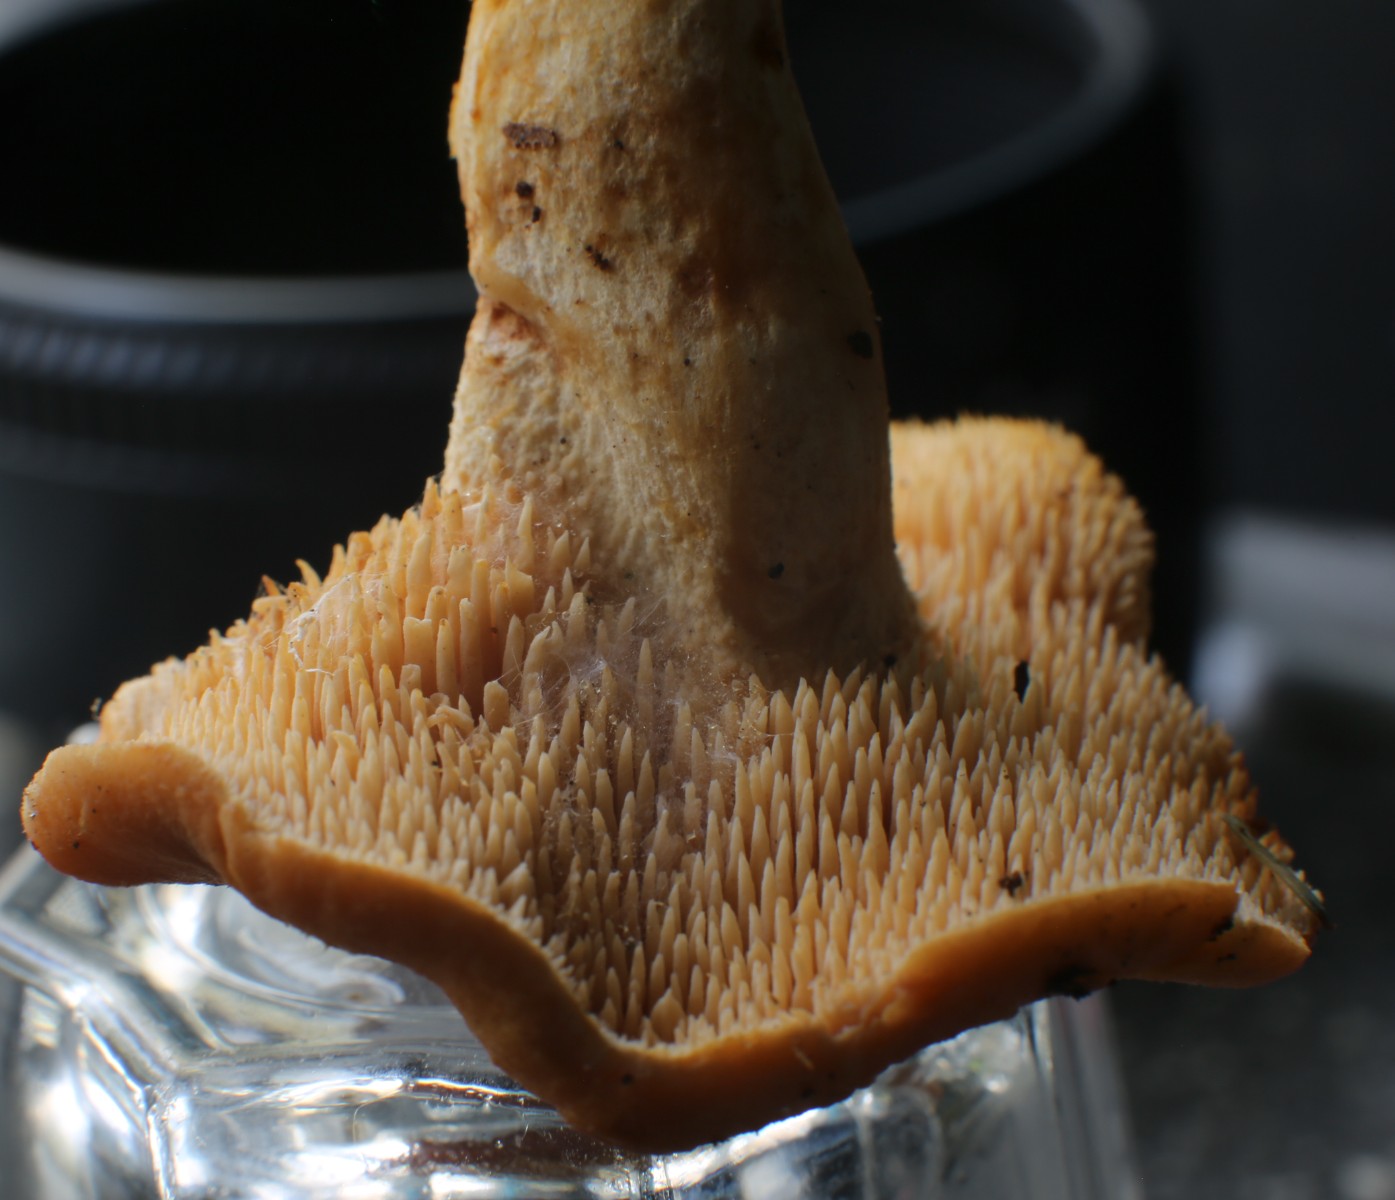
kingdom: Fungi
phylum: Basidiomycota
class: Agaricomycetes
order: Cantharellales
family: Hydnaceae
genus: Hydnum
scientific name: Hydnum
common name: pigsvamp
